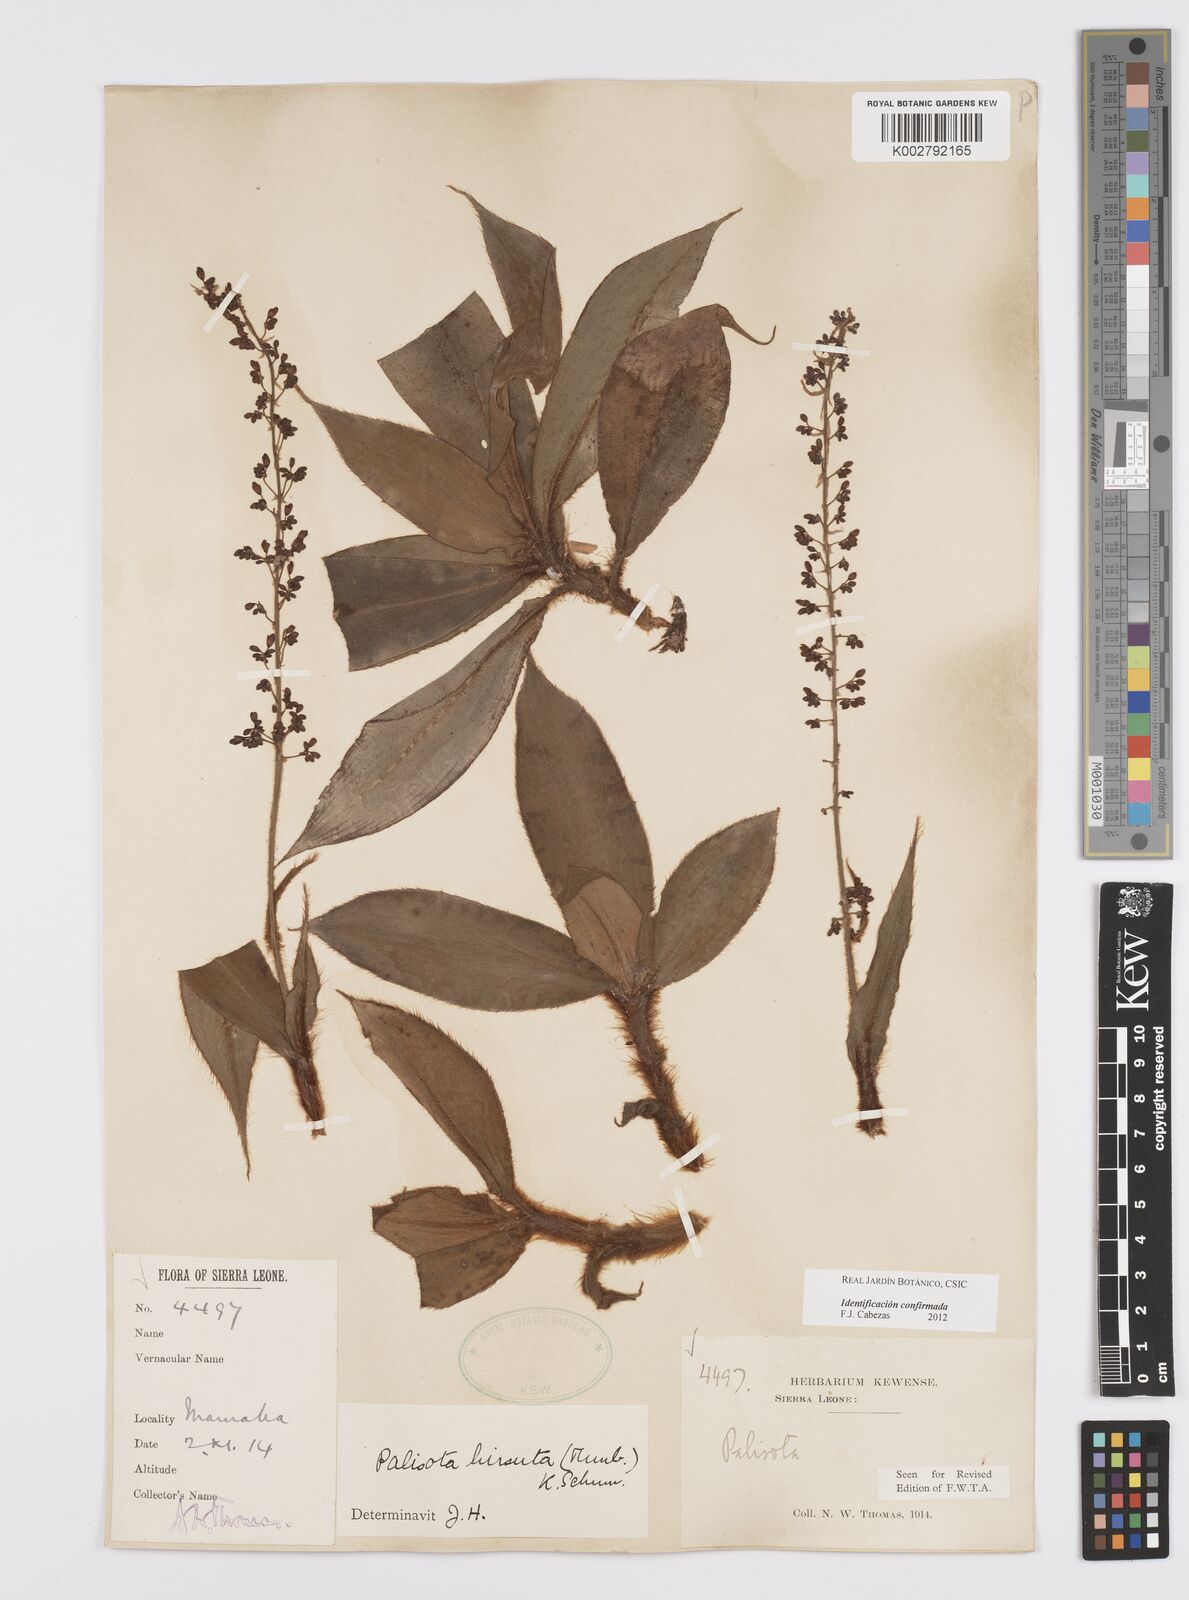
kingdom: Plantae
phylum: Tracheophyta
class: Liliopsida
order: Commelinales
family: Commelinaceae
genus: Palisota
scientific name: Palisota hirsuta
